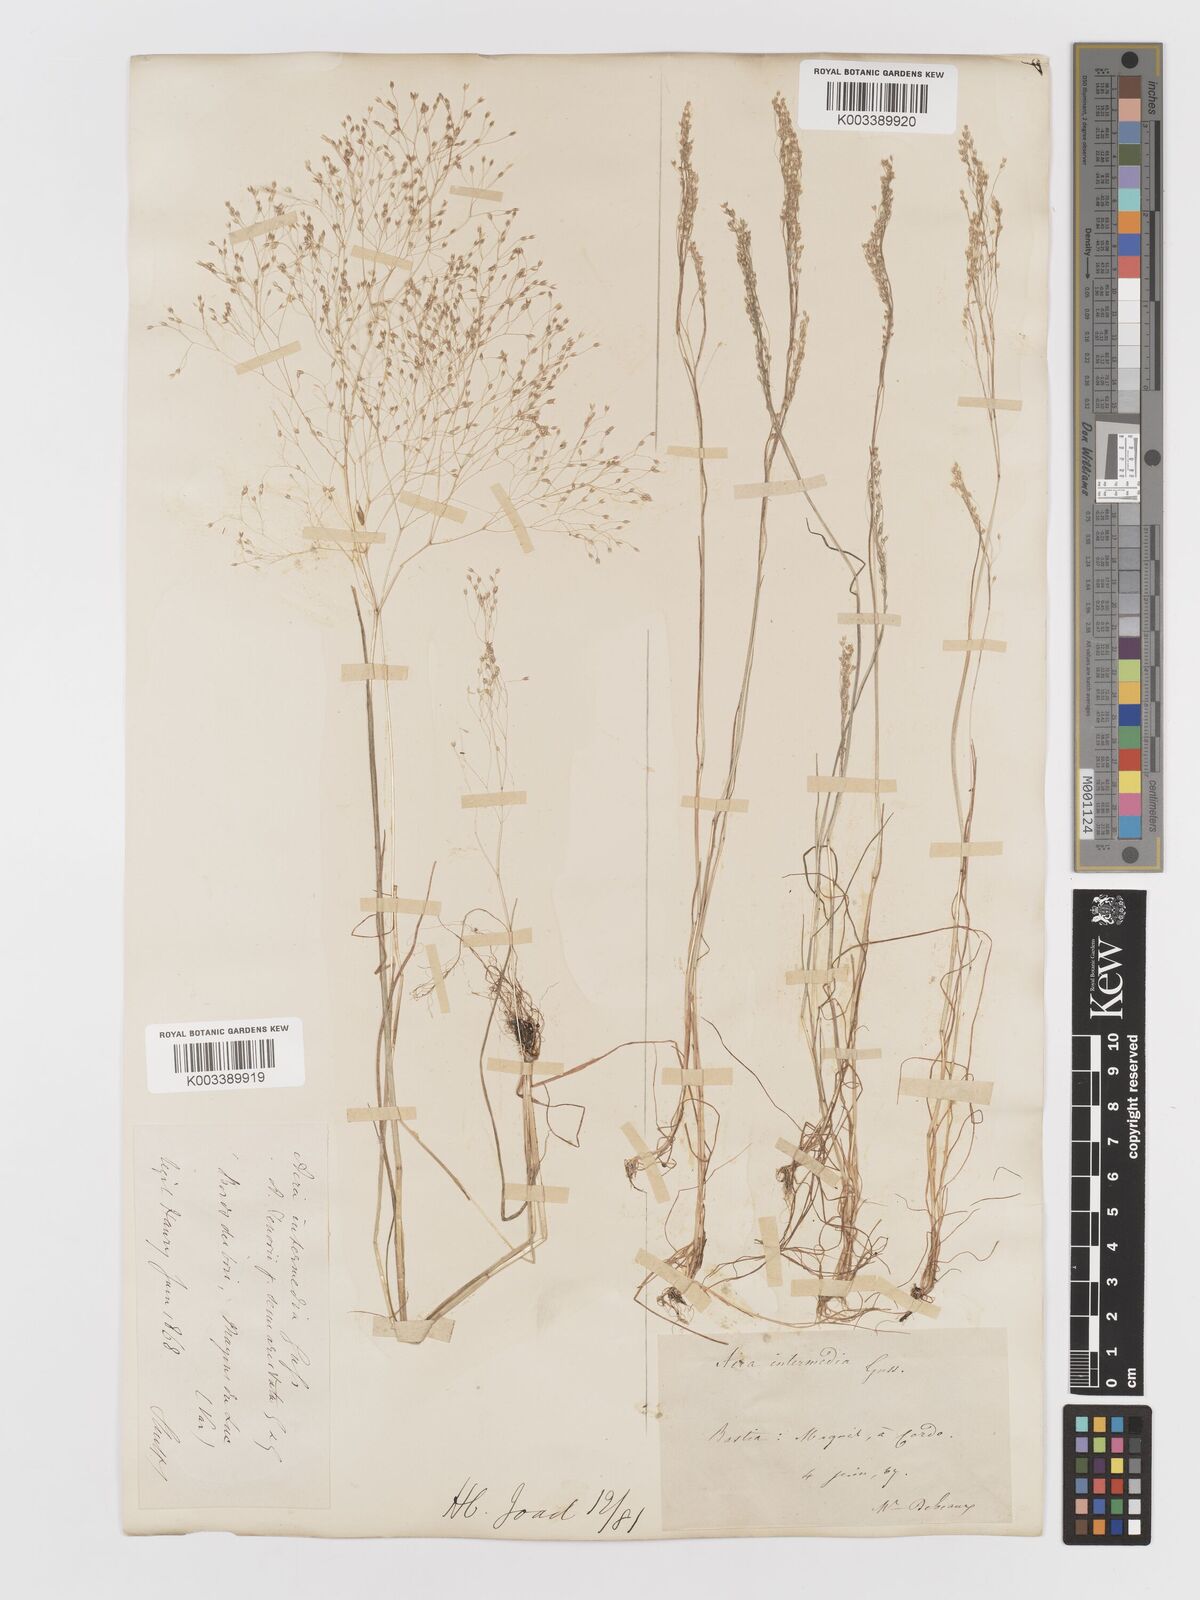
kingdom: Plantae
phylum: Tracheophyta
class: Liliopsida
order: Poales
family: Poaceae
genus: Aira
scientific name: Aira
